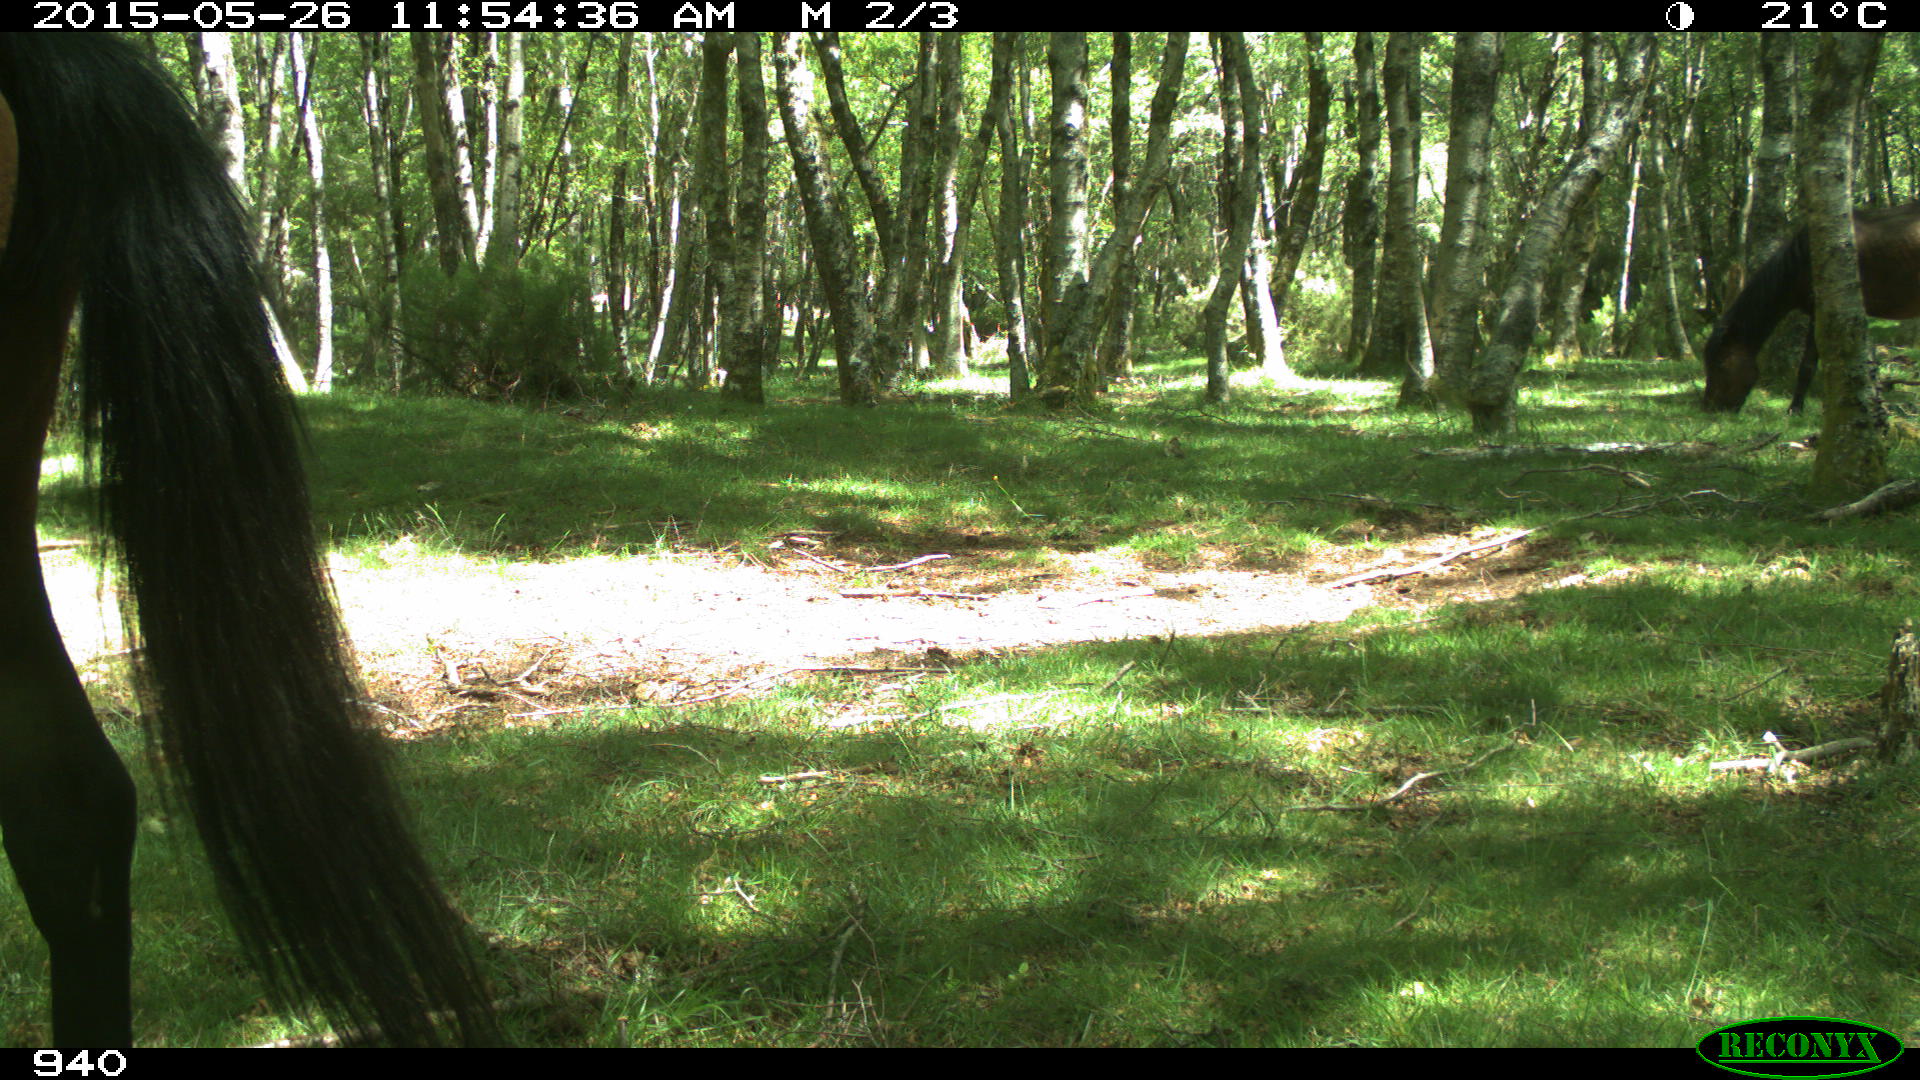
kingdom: Animalia
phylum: Chordata
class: Mammalia
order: Perissodactyla
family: Equidae
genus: Equus
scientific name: Equus caballus
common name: Horse
